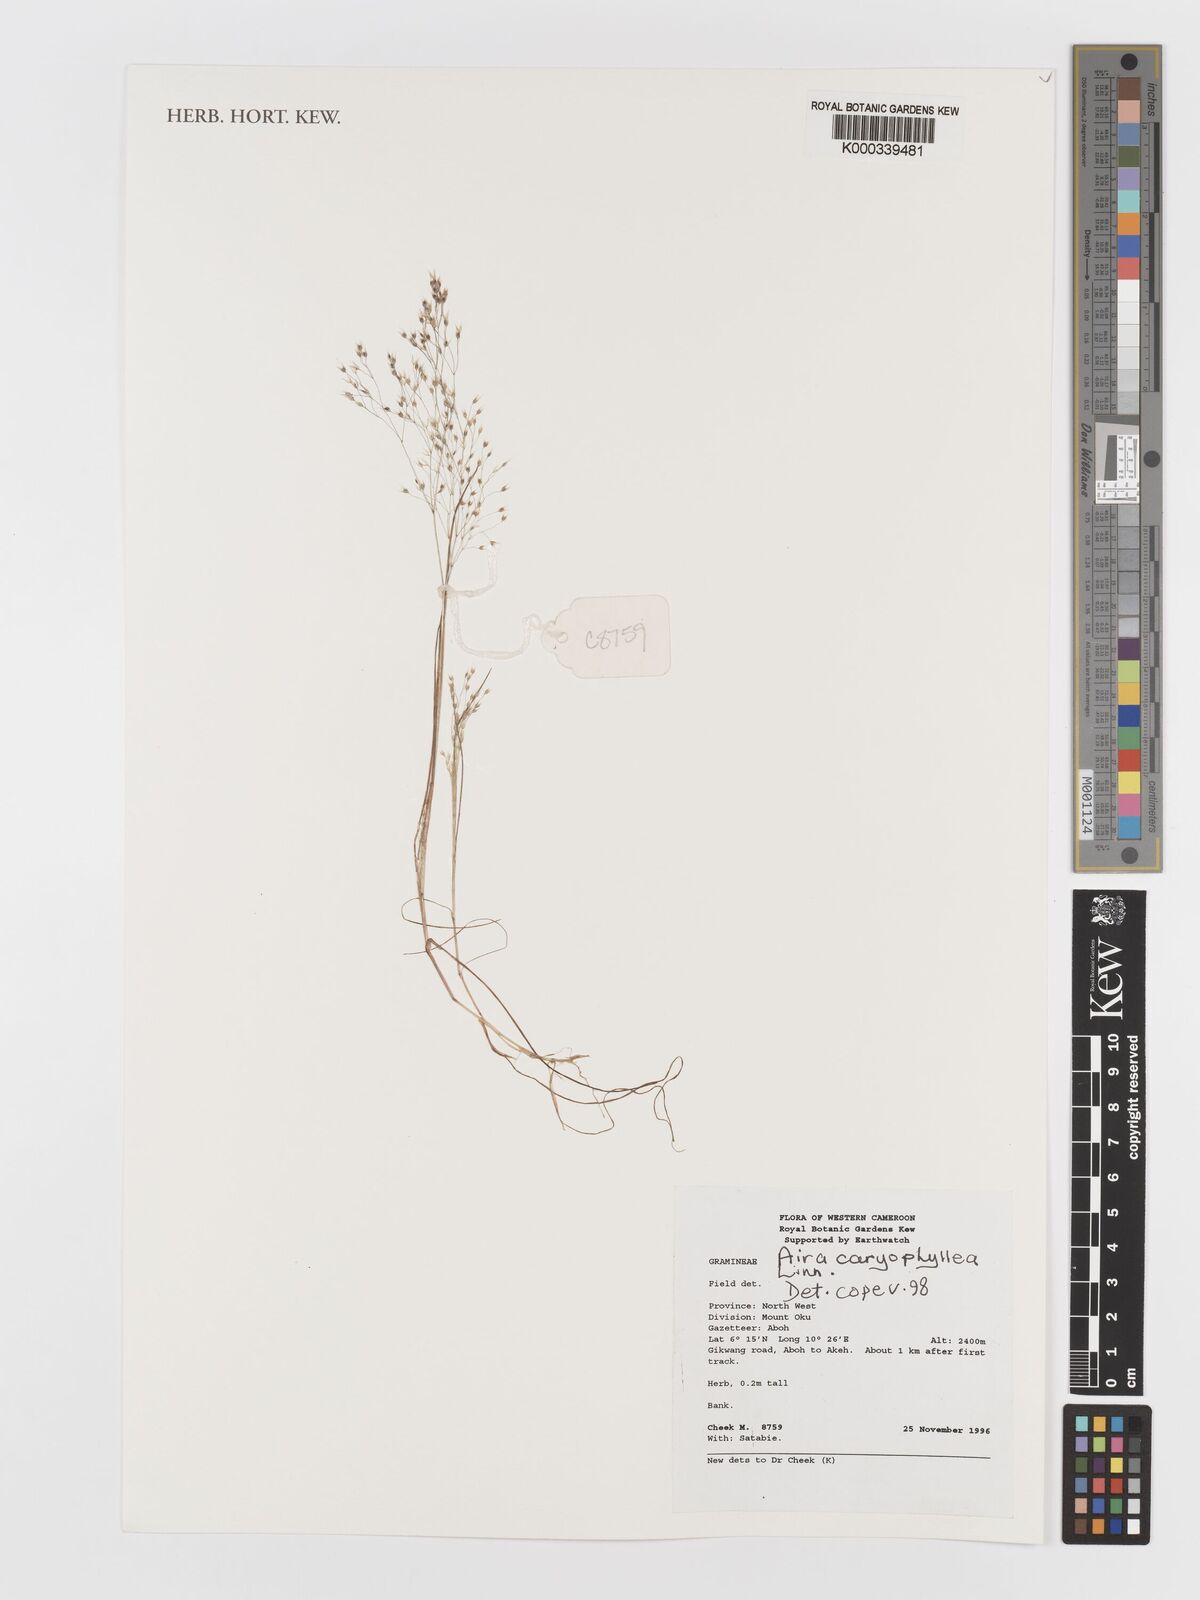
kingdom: Plantae
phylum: Tracheophyta
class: Liliopsida
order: Poales
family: Poaceae
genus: Aira
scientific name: Aira caryophyllea
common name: Silver hairgrass
